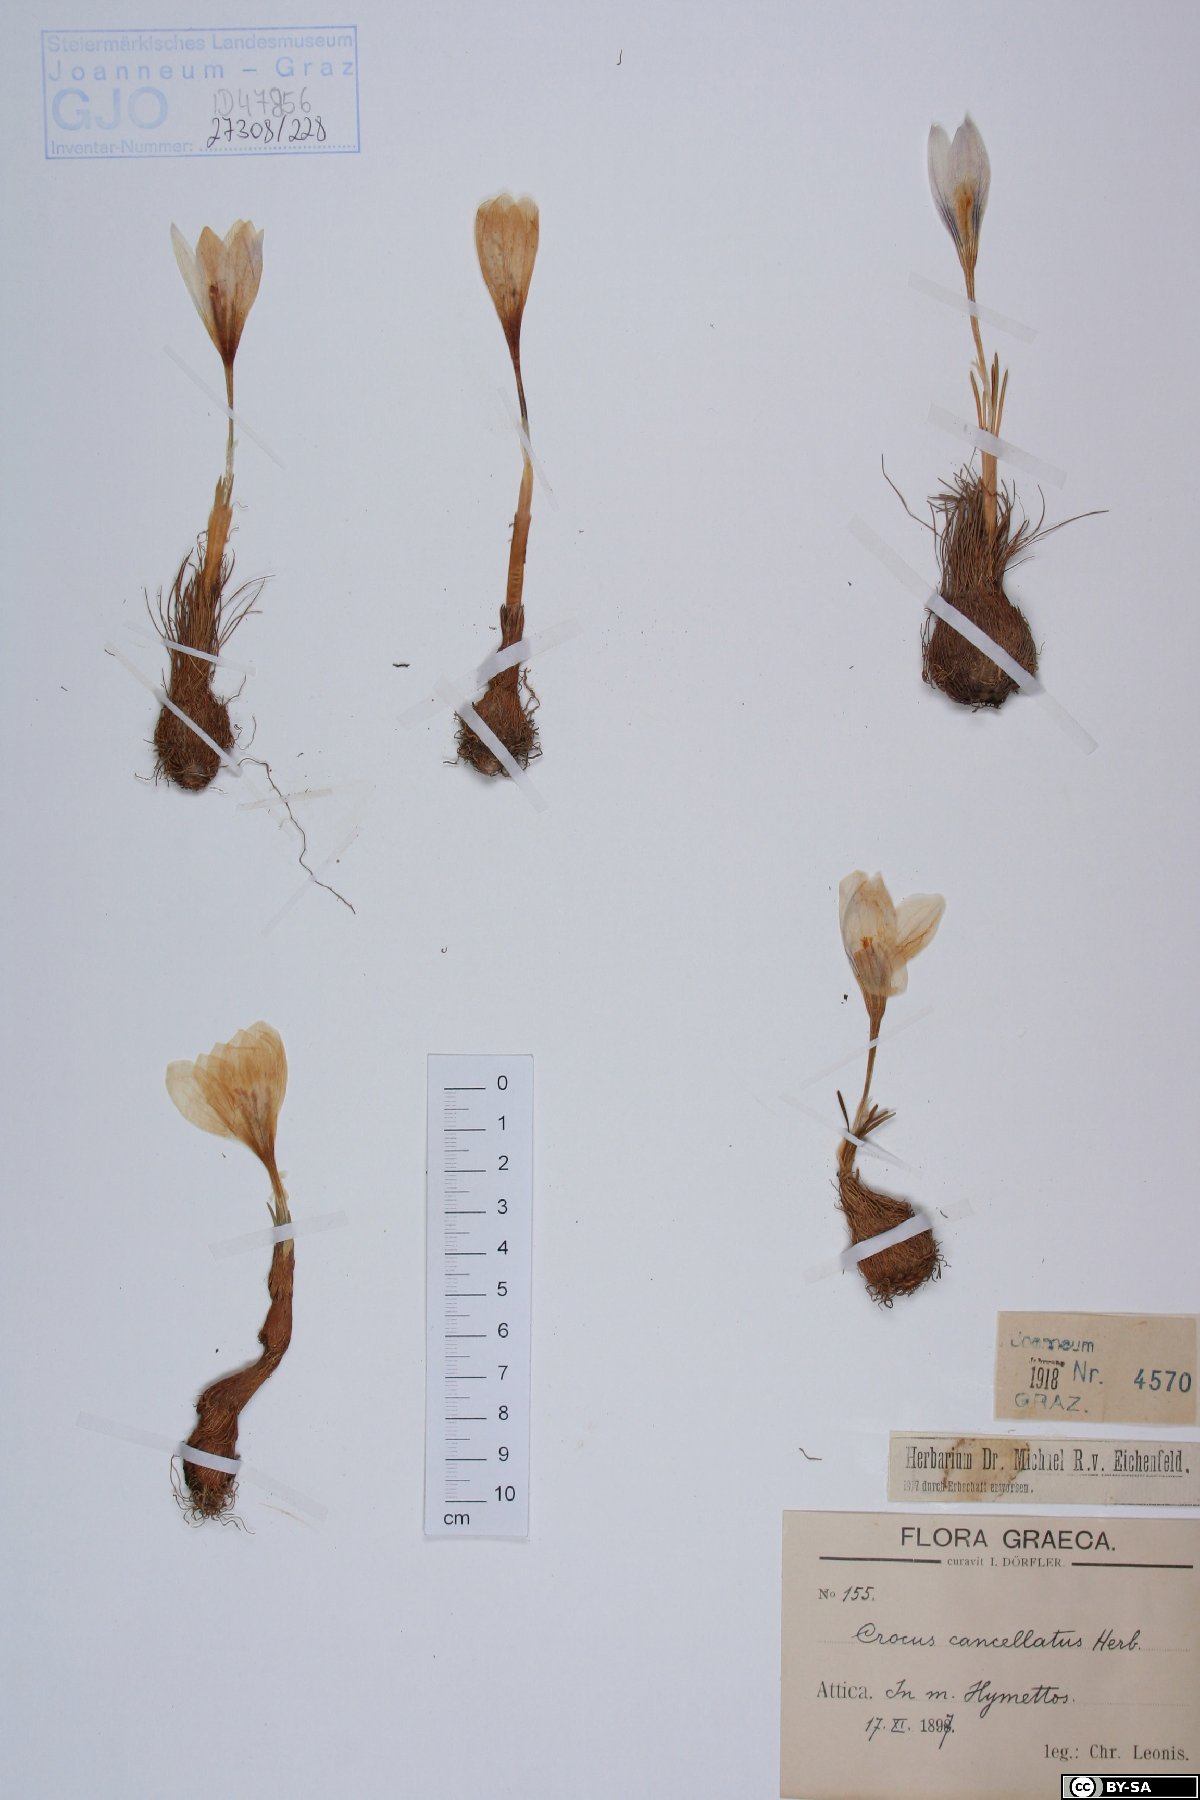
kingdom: Plantae
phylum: Tracheophyta
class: Liliopsida
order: Asparagales
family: Iridaceae
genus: Crocus
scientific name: Crocus laevigatus
